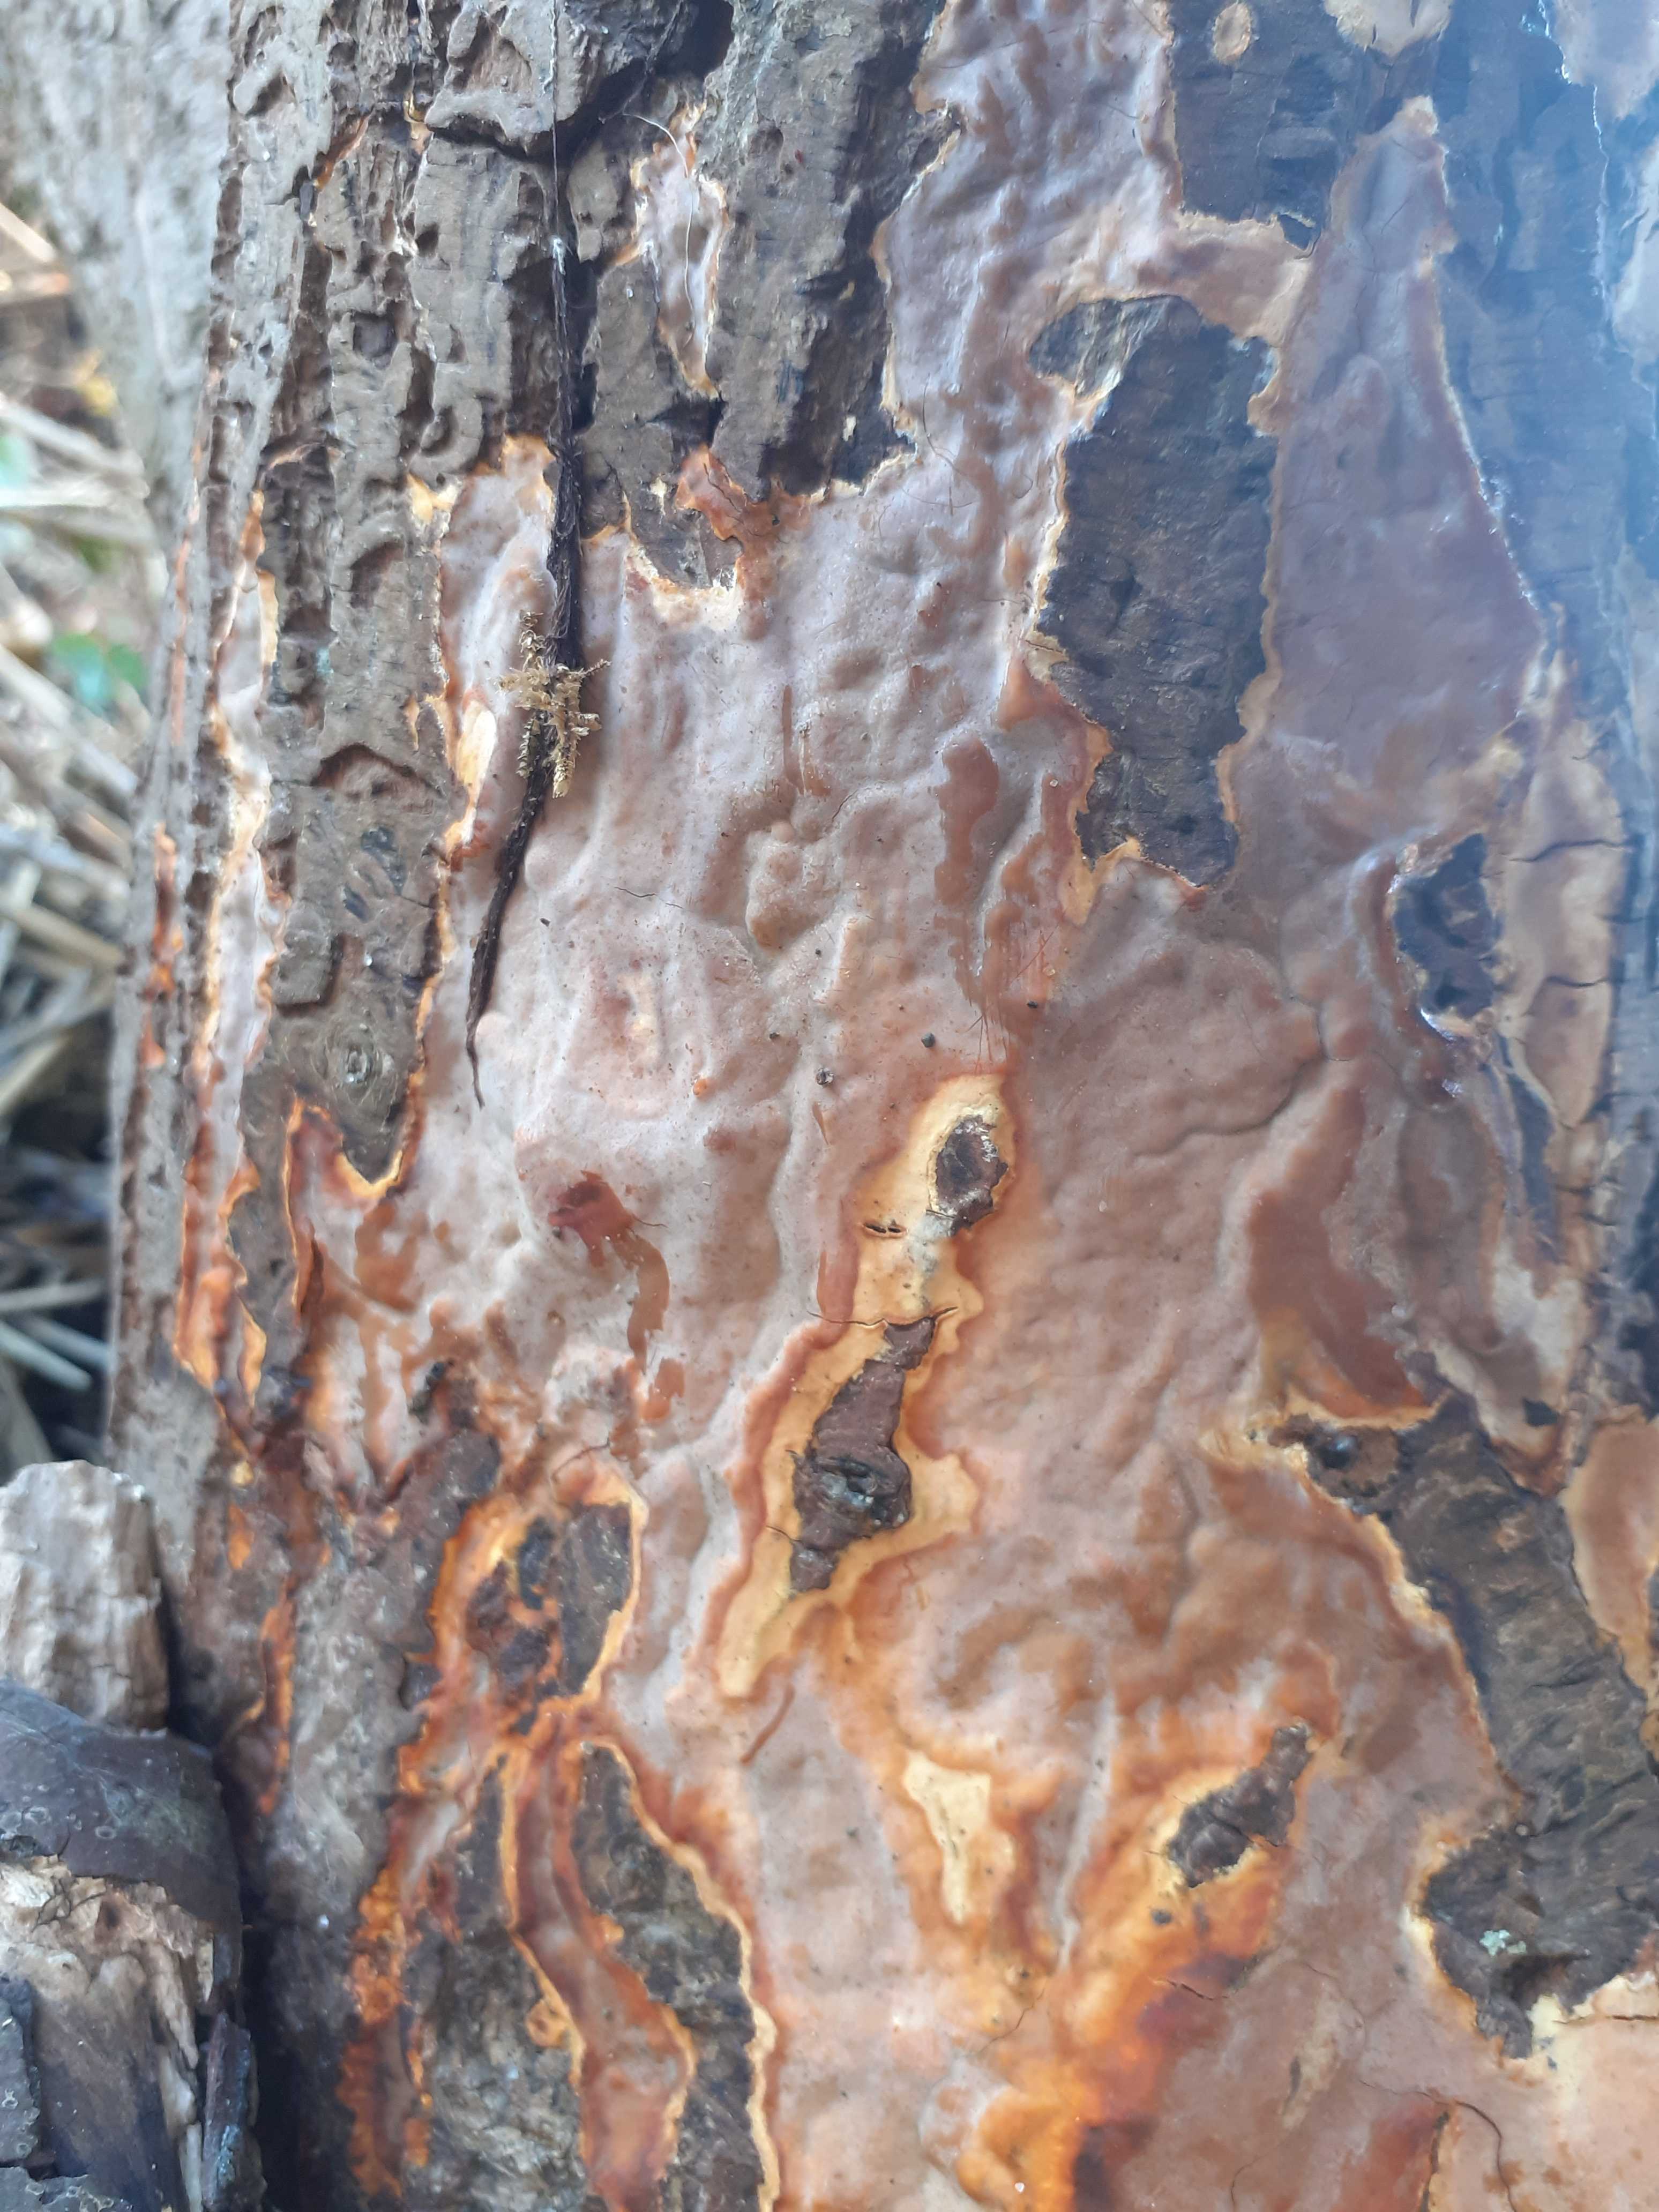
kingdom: Fungi
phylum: Basidiomycota
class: Agaricomycetes
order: Russulales
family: Peniophoraceae
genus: Scytinostroma
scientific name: Scytinostroma hemidichophyticum
